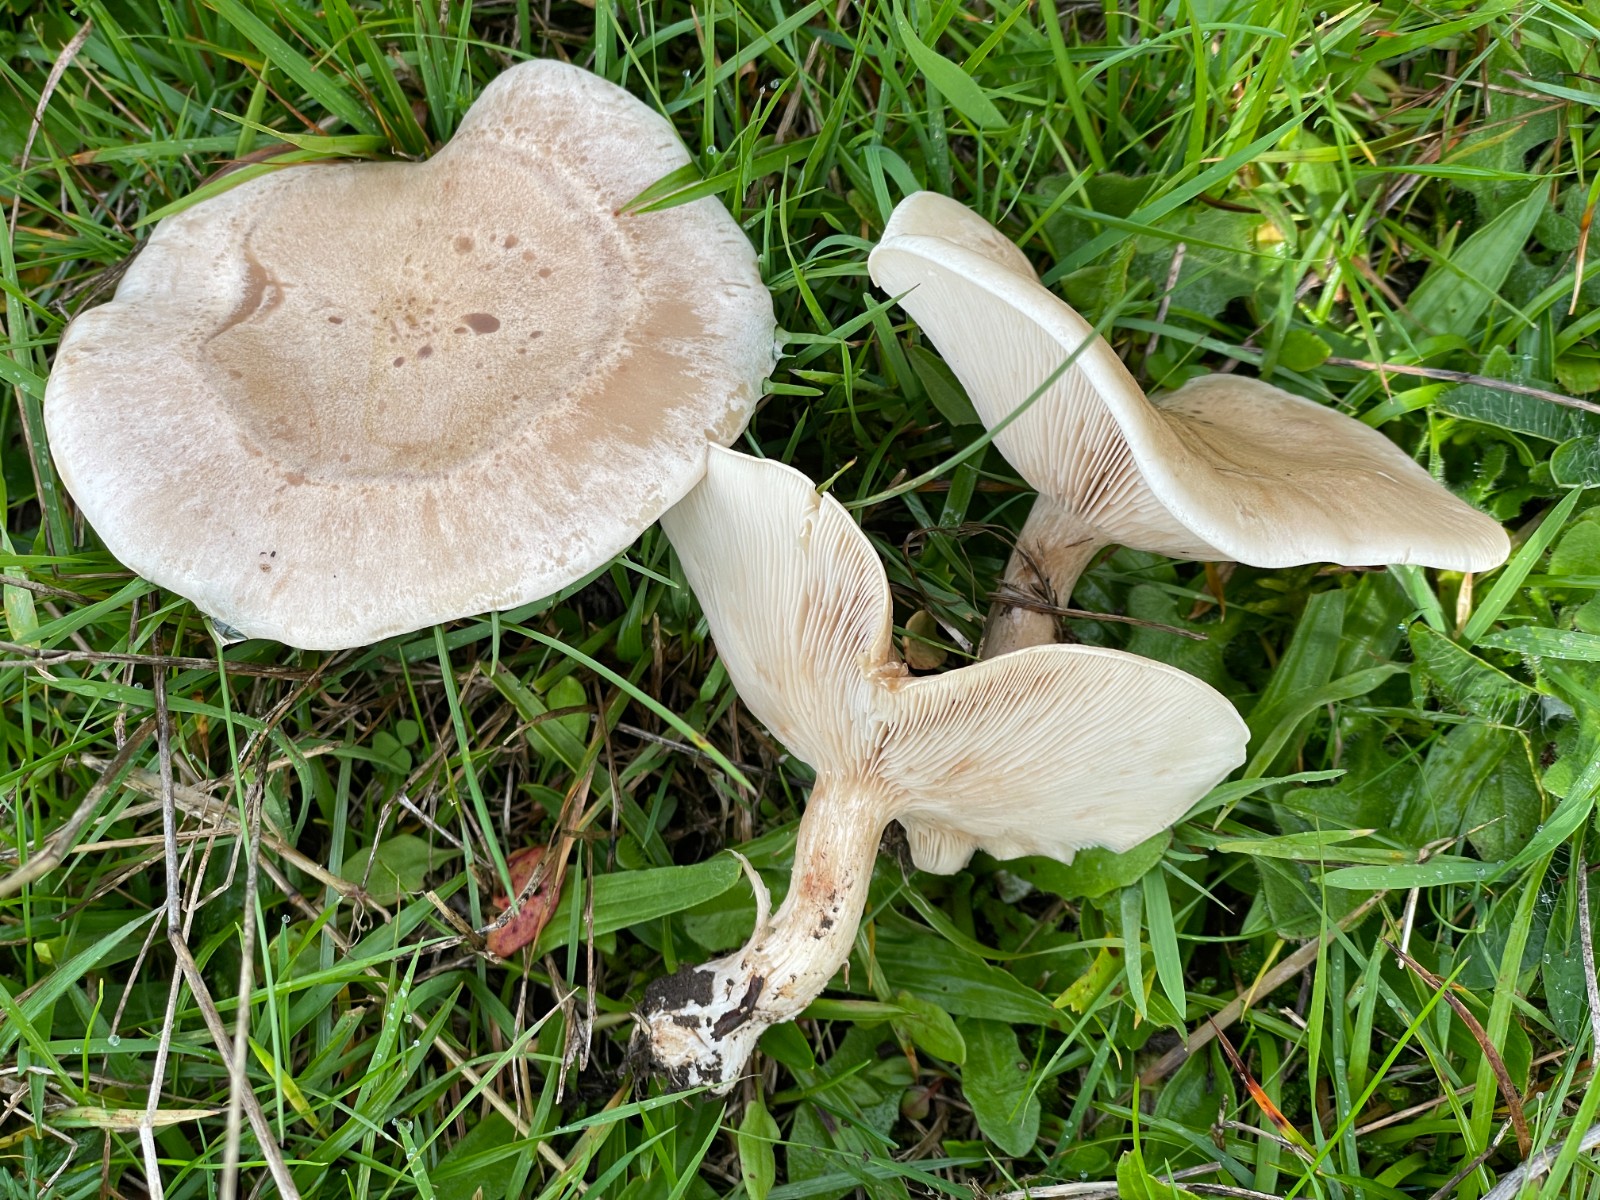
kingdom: Fungi
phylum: Basidiomycota
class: Agaricomycetes
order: Agaricales
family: Tricholomataceae
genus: Clitocybe
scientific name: Clitocybe
